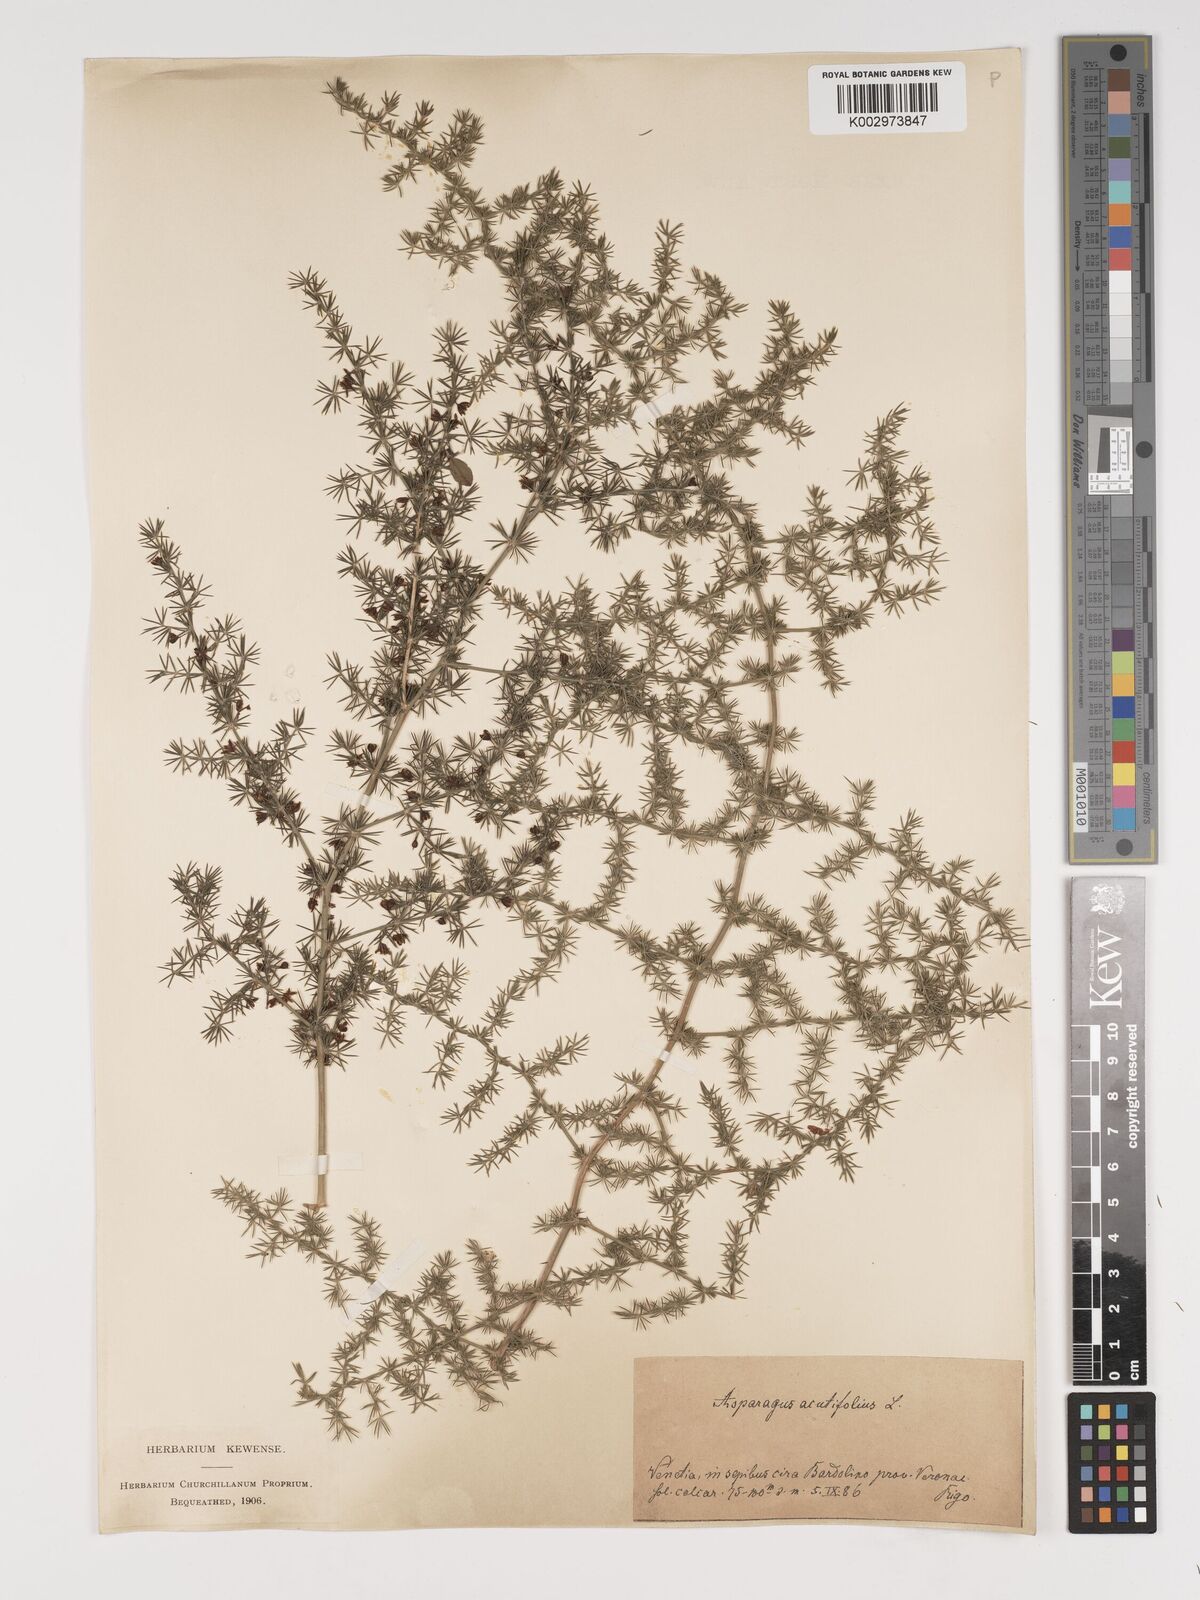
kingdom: Plantae
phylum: Tracheophyta
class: Liliopsida
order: Asparagales
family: Asparagaceae
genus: Asparagus
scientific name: Asparagus acutifolius
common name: Wild asparagus
